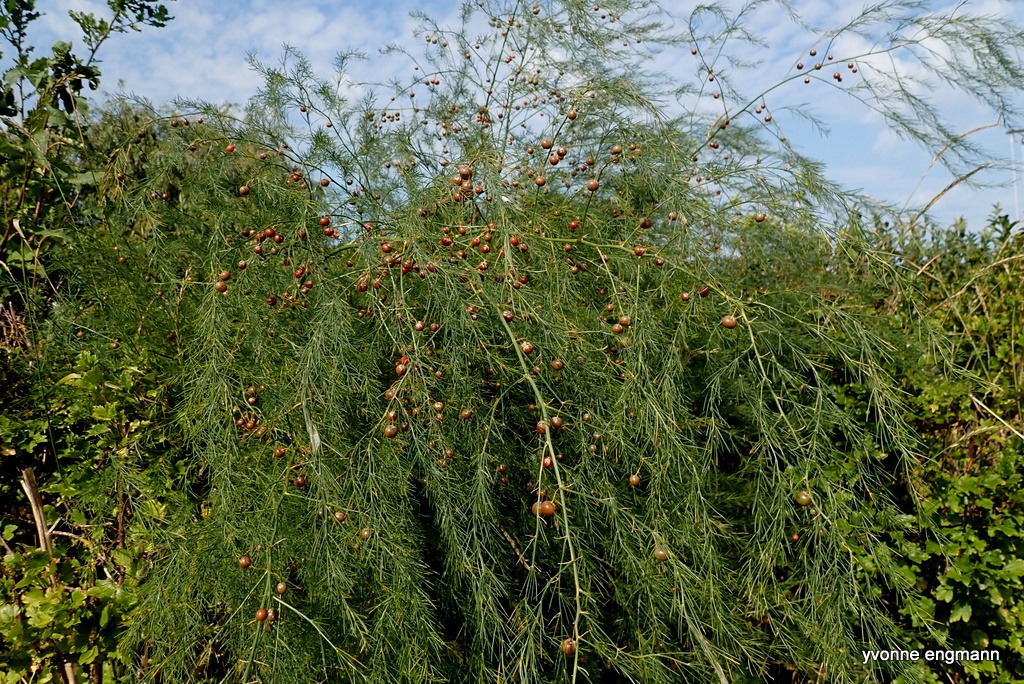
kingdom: Plantae
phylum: Tracheophyta
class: Liliopsida
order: Asparagales
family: Asparagaceae
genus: Asparagus
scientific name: Asparagus officinalis
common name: Asparges
